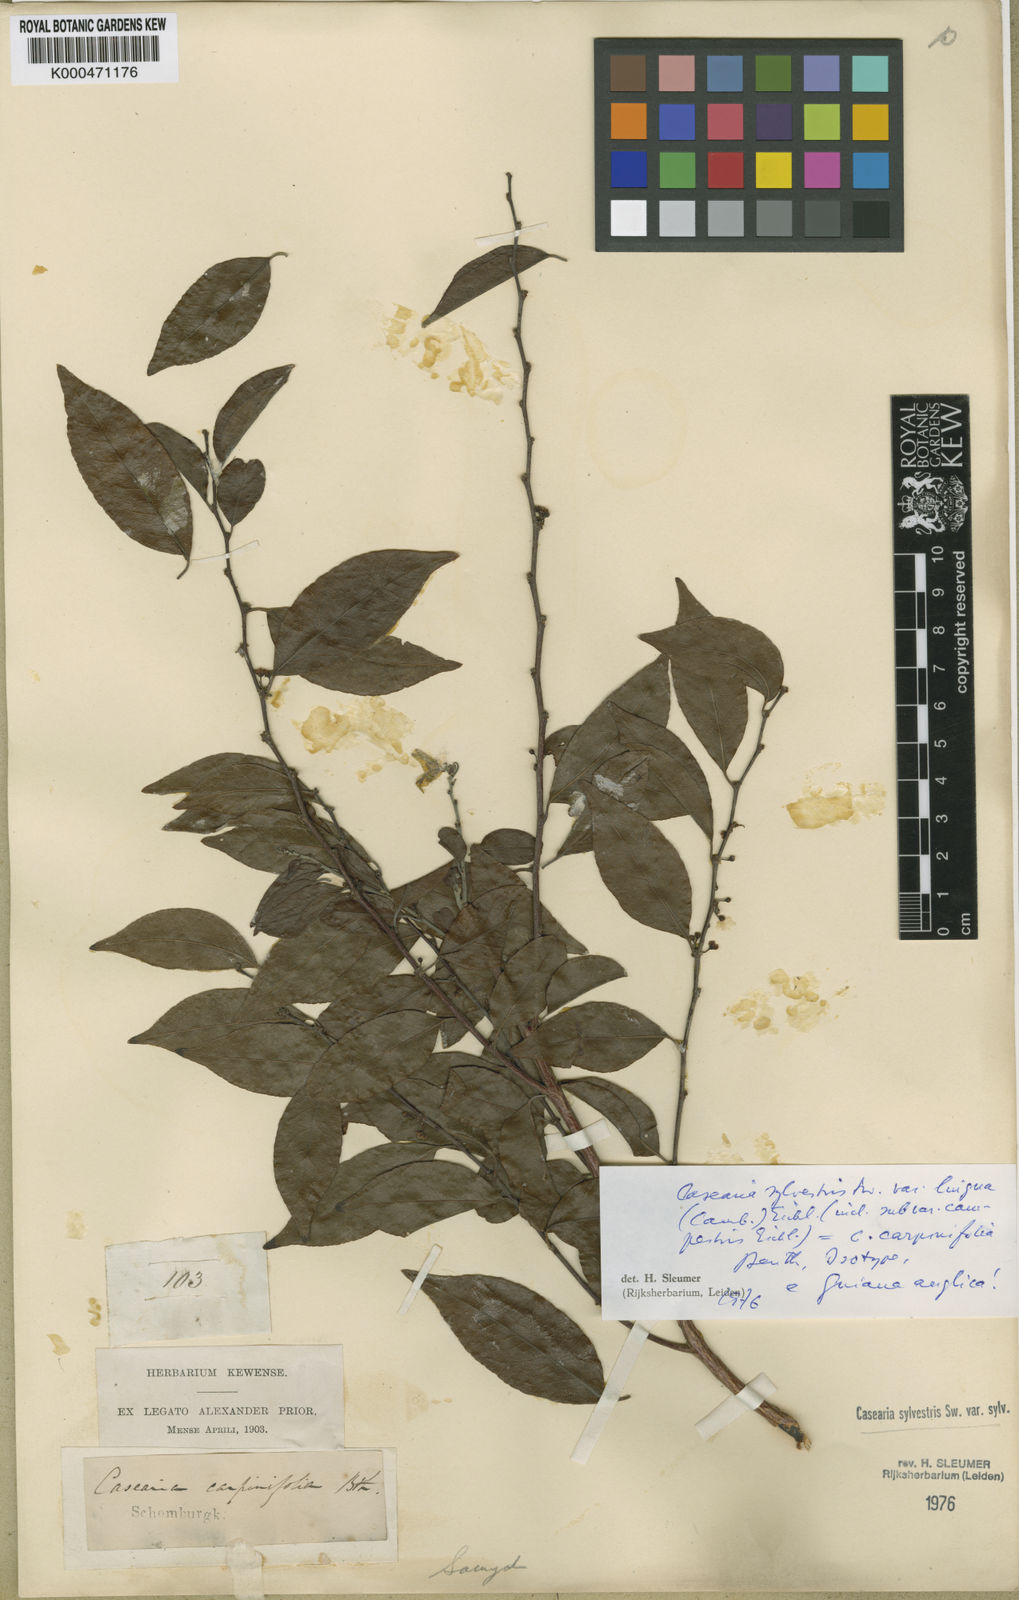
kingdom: Plantae
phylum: Tracheophyta
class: Magnoliopsida
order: Malpighiales
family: Salicaceae
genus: Casearia
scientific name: Casearia sylvestris
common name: Wild sage
